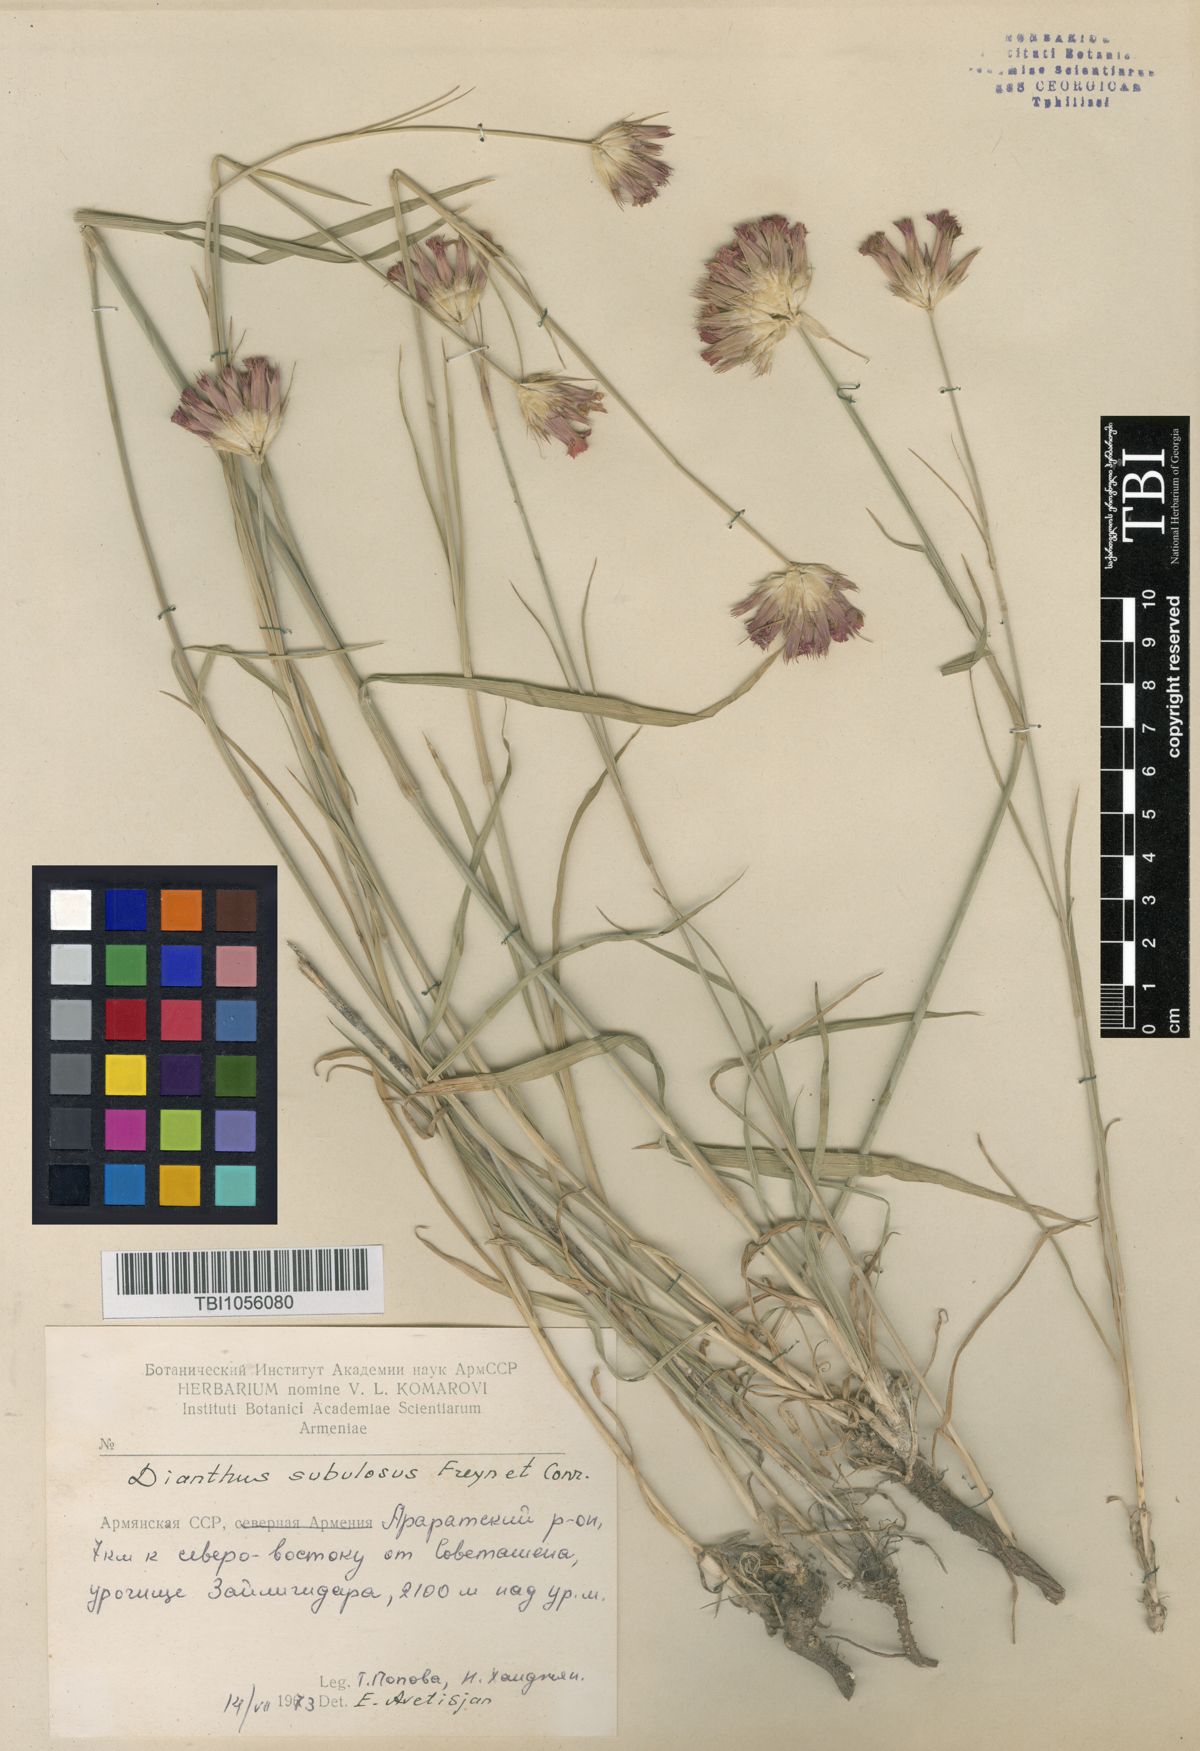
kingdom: Plantae
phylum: Tracheophyta
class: Magnoliopsida
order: Caryophyllales
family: Caryophyllaceae
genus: Dianthus
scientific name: Dianthus subulosus
